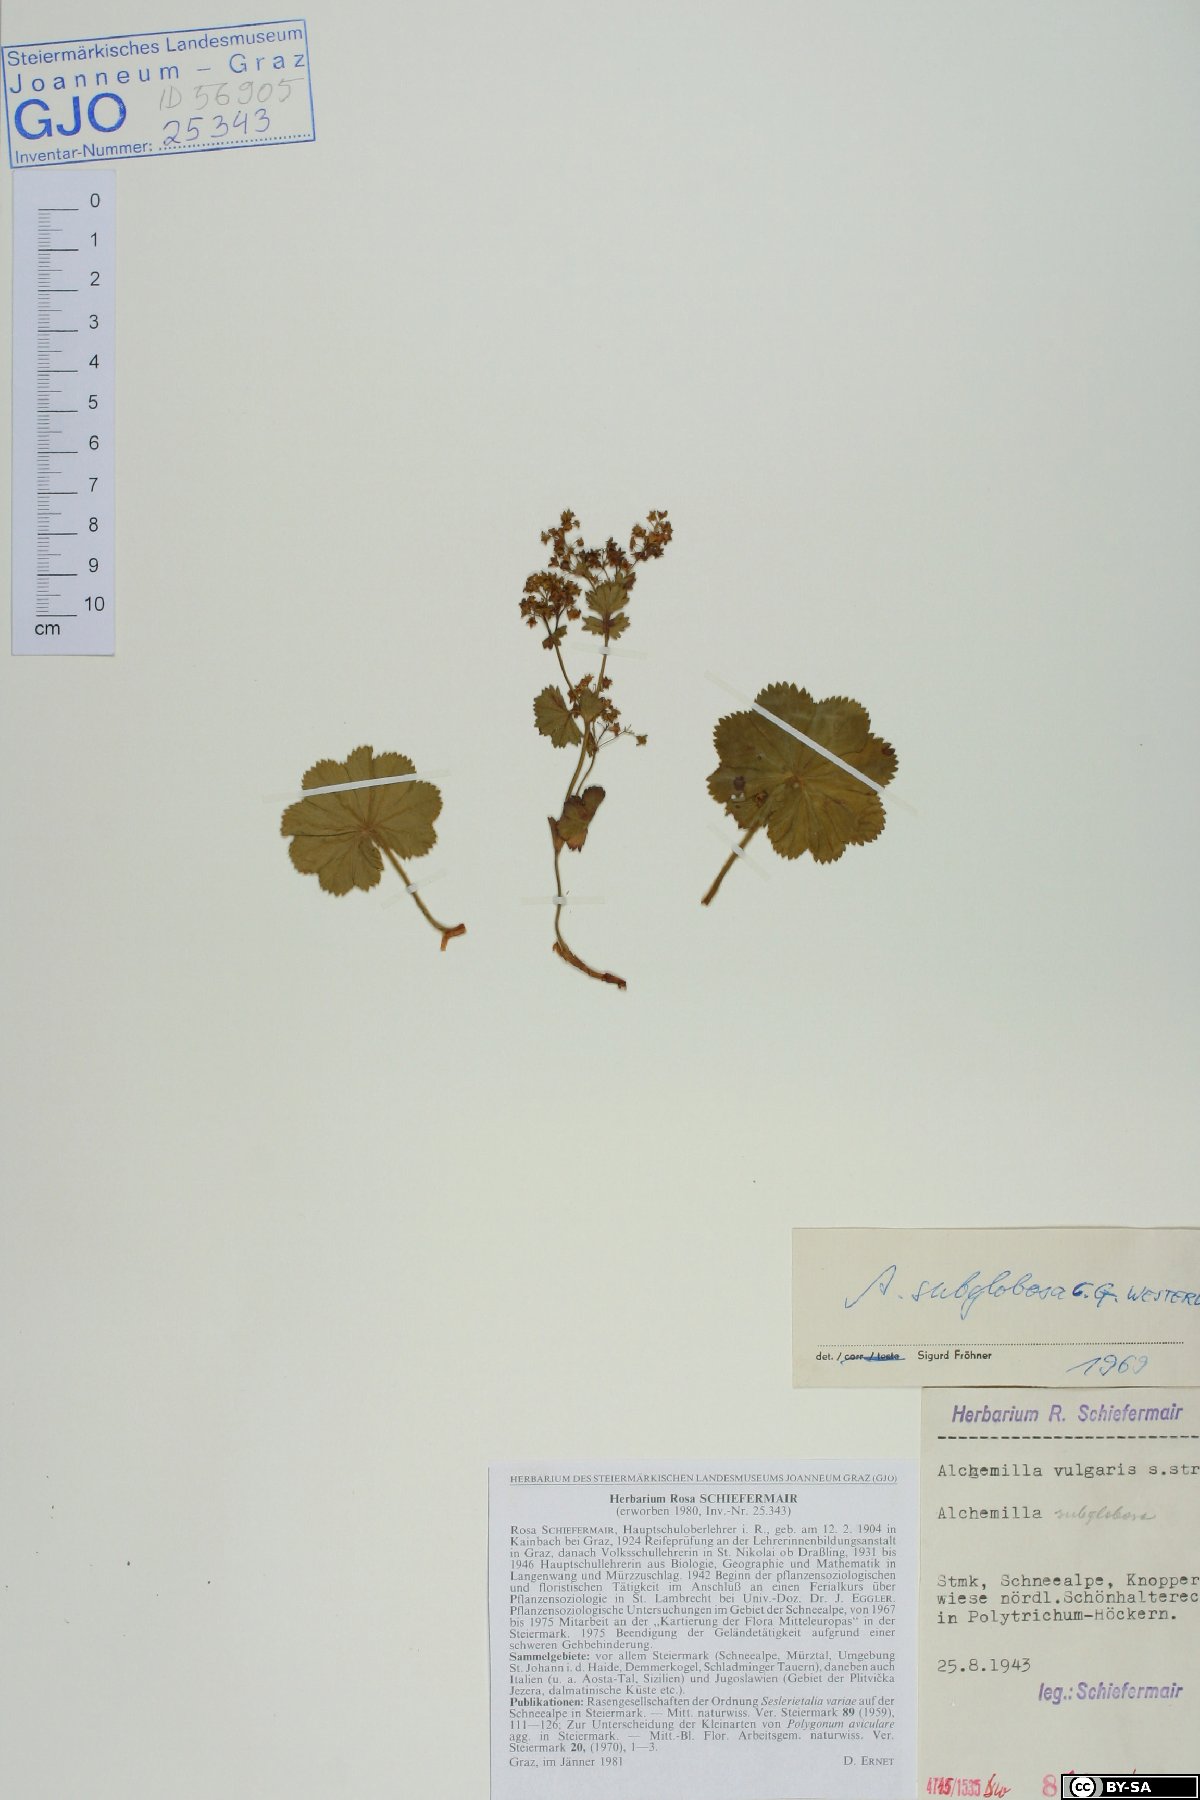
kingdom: Plantae
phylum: Tracheophyta
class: Magnoliopsida
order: Rosales
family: Rosaceae
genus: Alchemilla
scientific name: Alchemilla subglobosa
